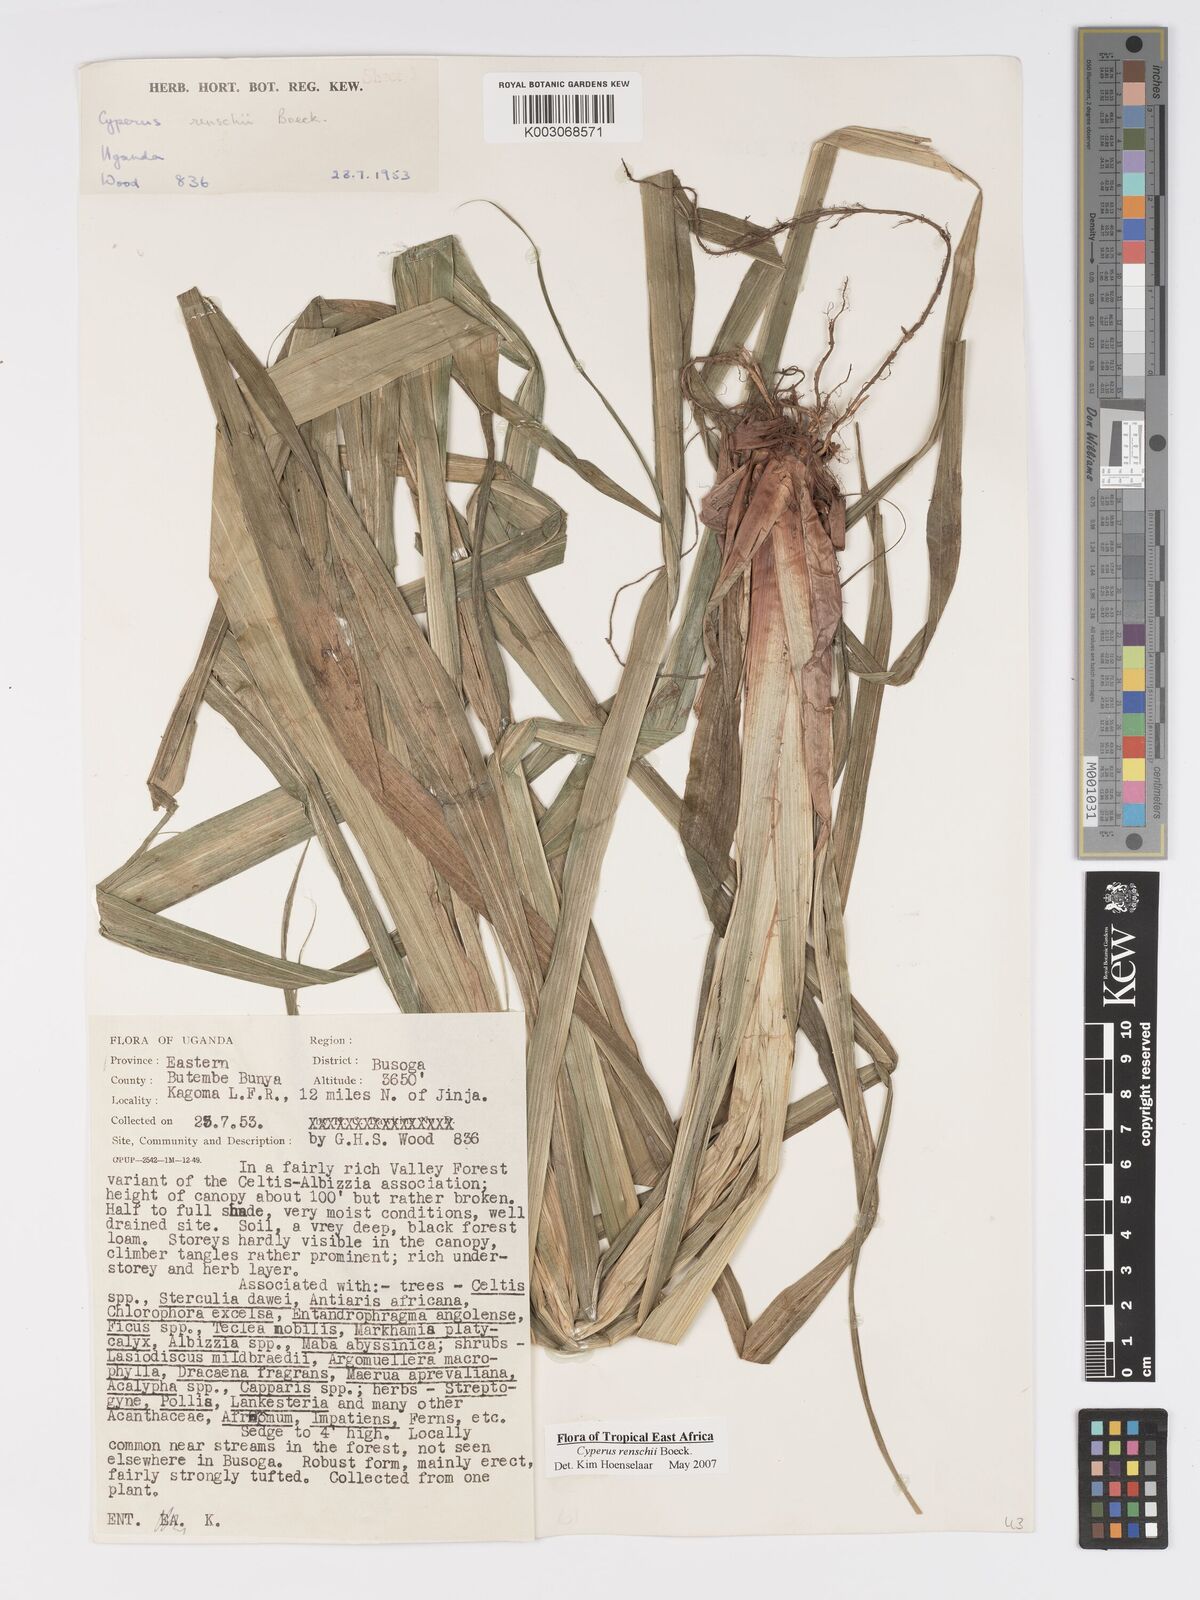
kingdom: Plantae
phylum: Tracheophyta
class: Liliopsida
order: Poales
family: Cyperaceae
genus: Cyperus
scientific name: Cyperus renschii
